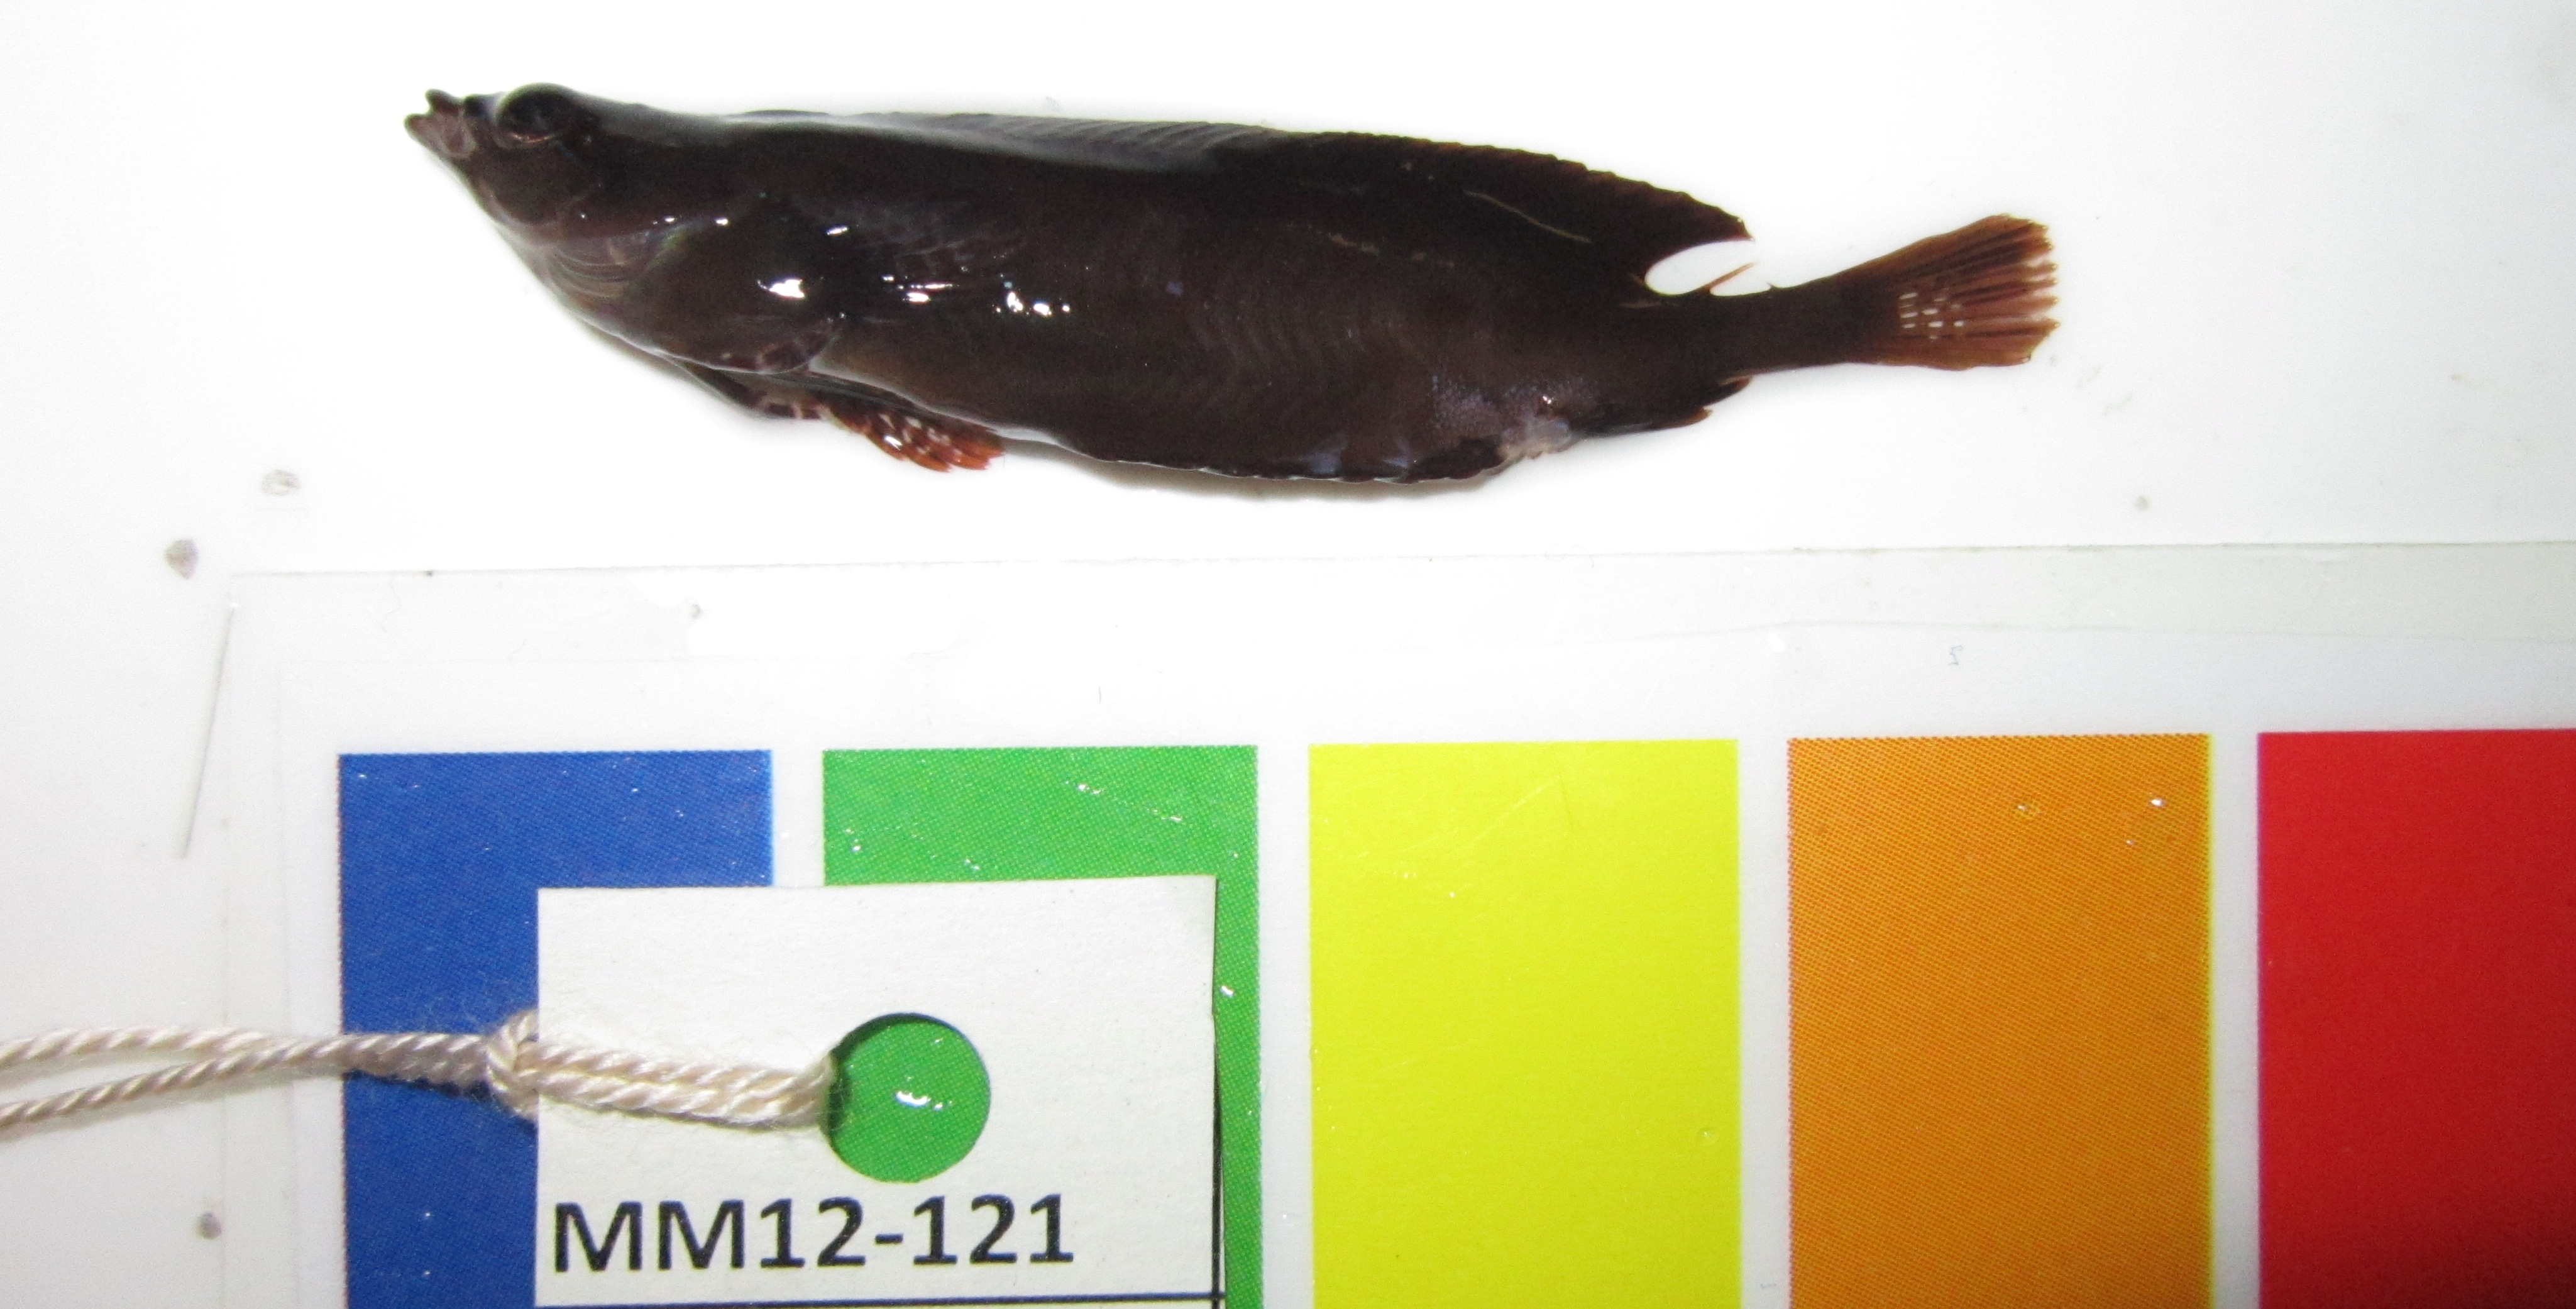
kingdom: Animalia
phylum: Chordata
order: Perciformes
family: Clinidae
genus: Fucomimus
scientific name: Fucomimus mus
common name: Mousey klipfish
